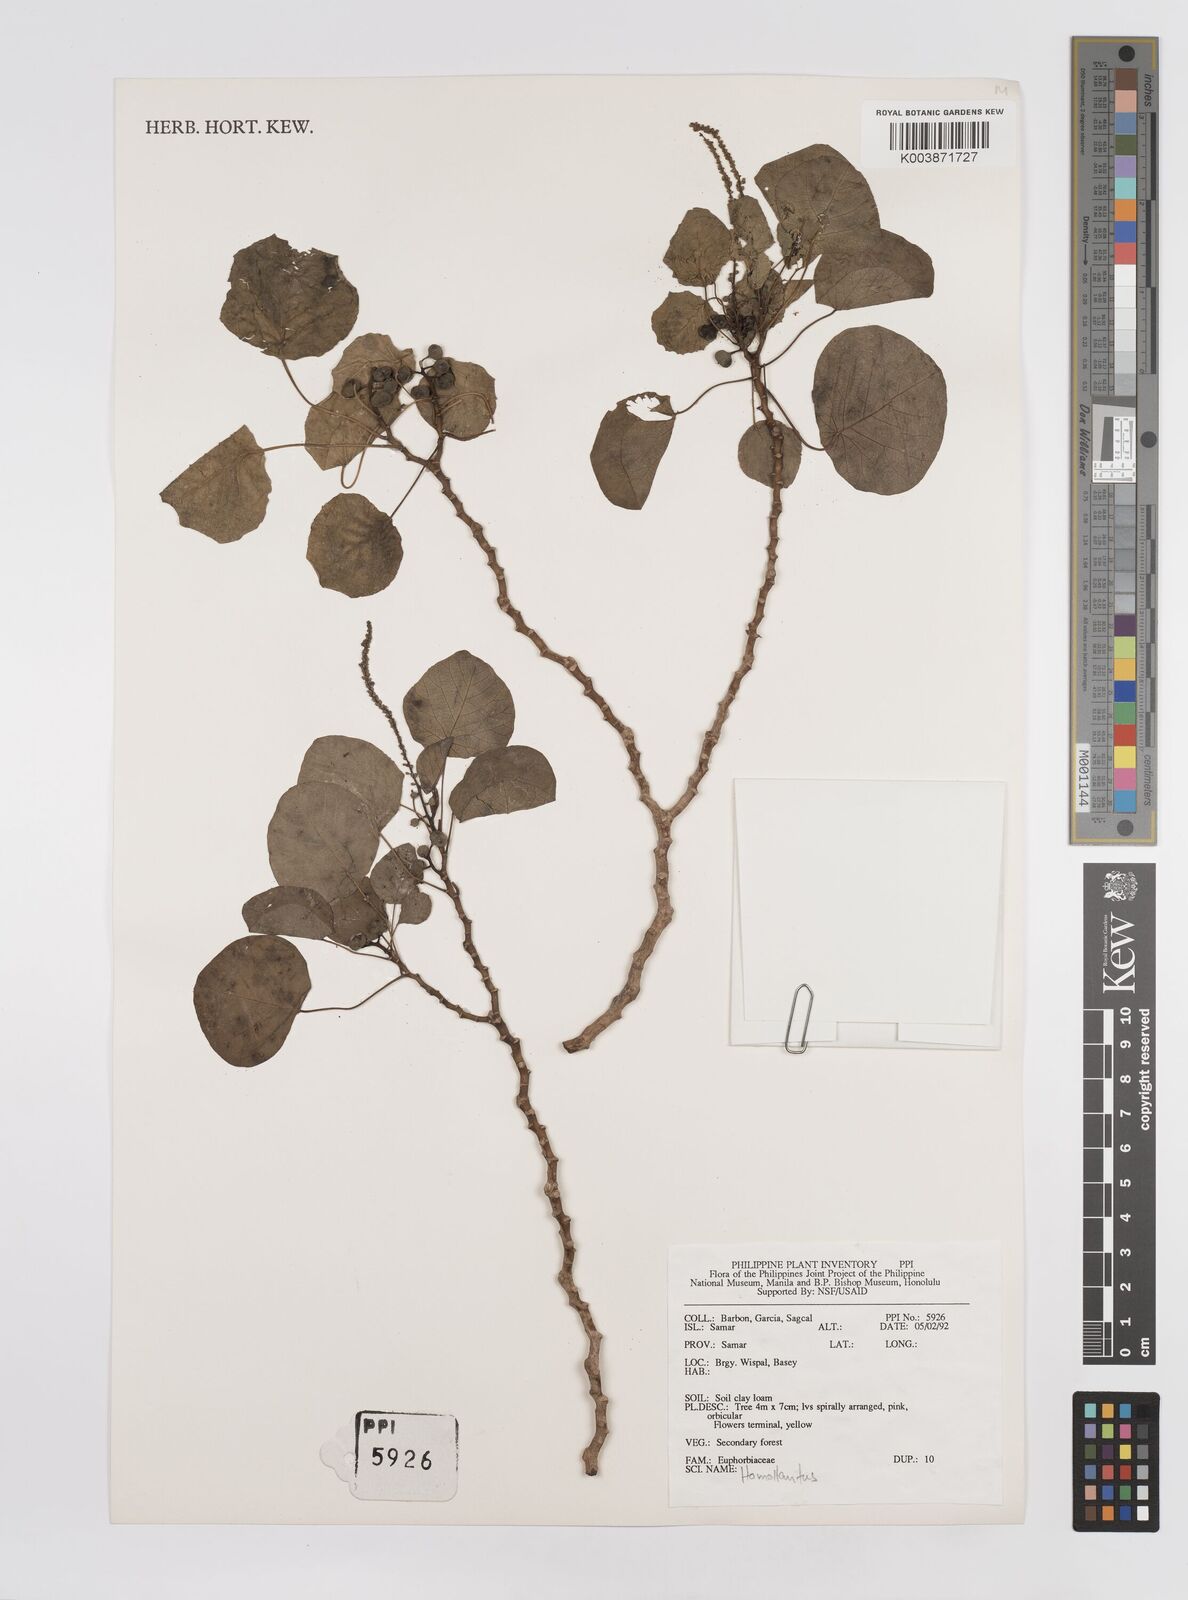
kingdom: Plantae
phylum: Tracheophyta
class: Magnoliopsida
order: Malpighiales
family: Euphorbiaceae
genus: Homalanthus
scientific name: Homalanthus macradenius
